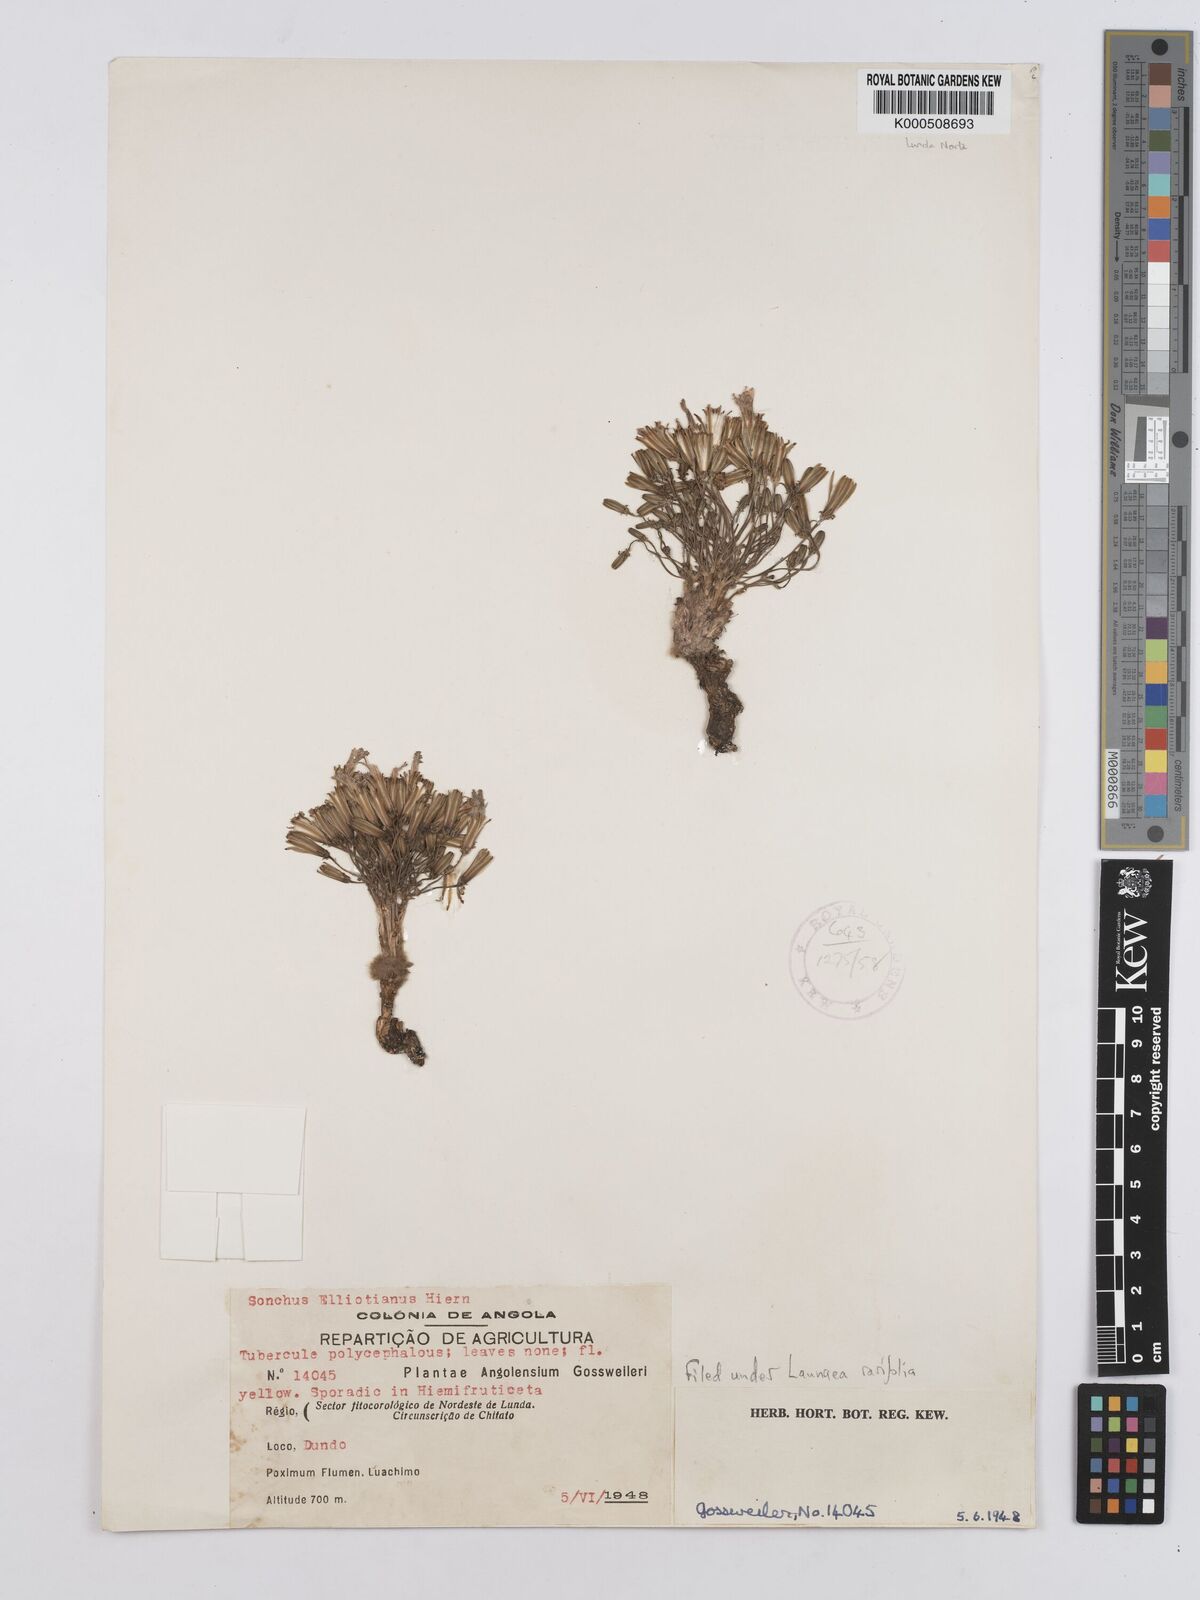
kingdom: Plantae
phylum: Tracheophyta
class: Magnoliopsida
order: Asterales
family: Asteraceae
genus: Launaea
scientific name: Launaea rarifolia
